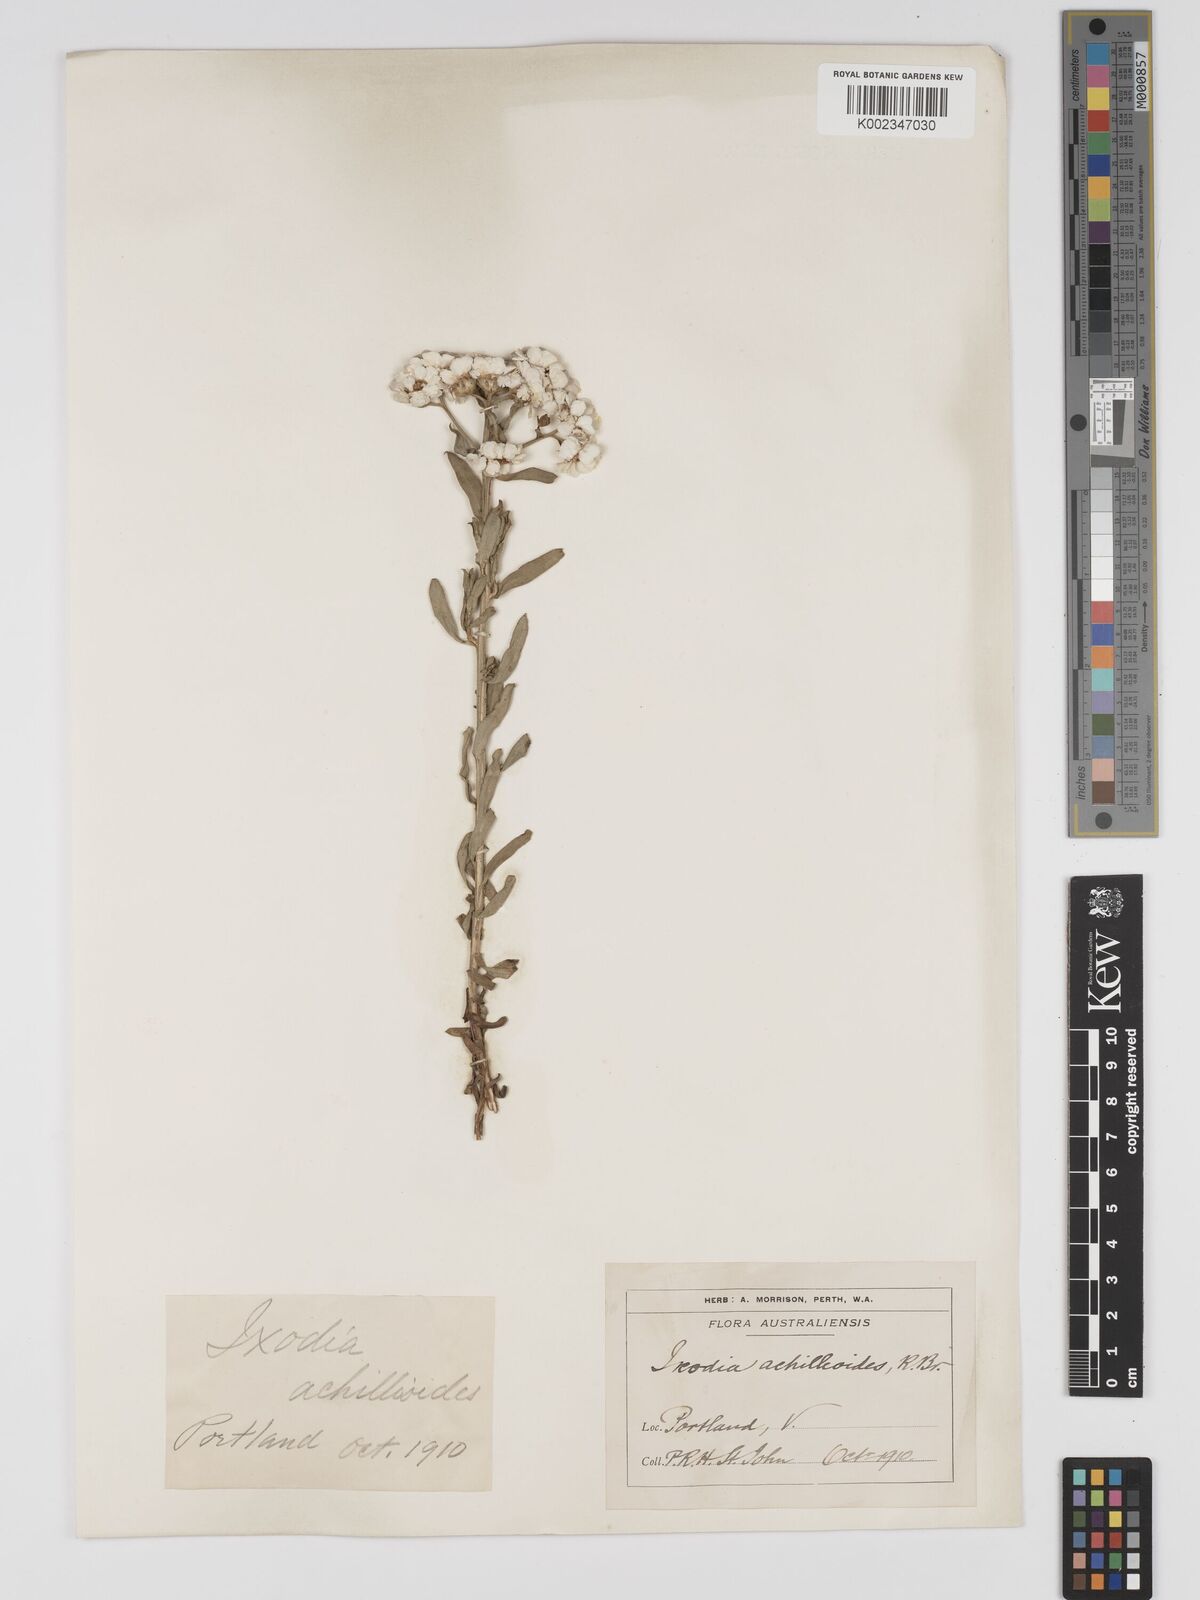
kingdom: Plantae
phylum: Tracheophyta
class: Magnoliopsida
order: Asterales
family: Asteraceae
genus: Ixodia
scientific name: Ixodia achilleoides
